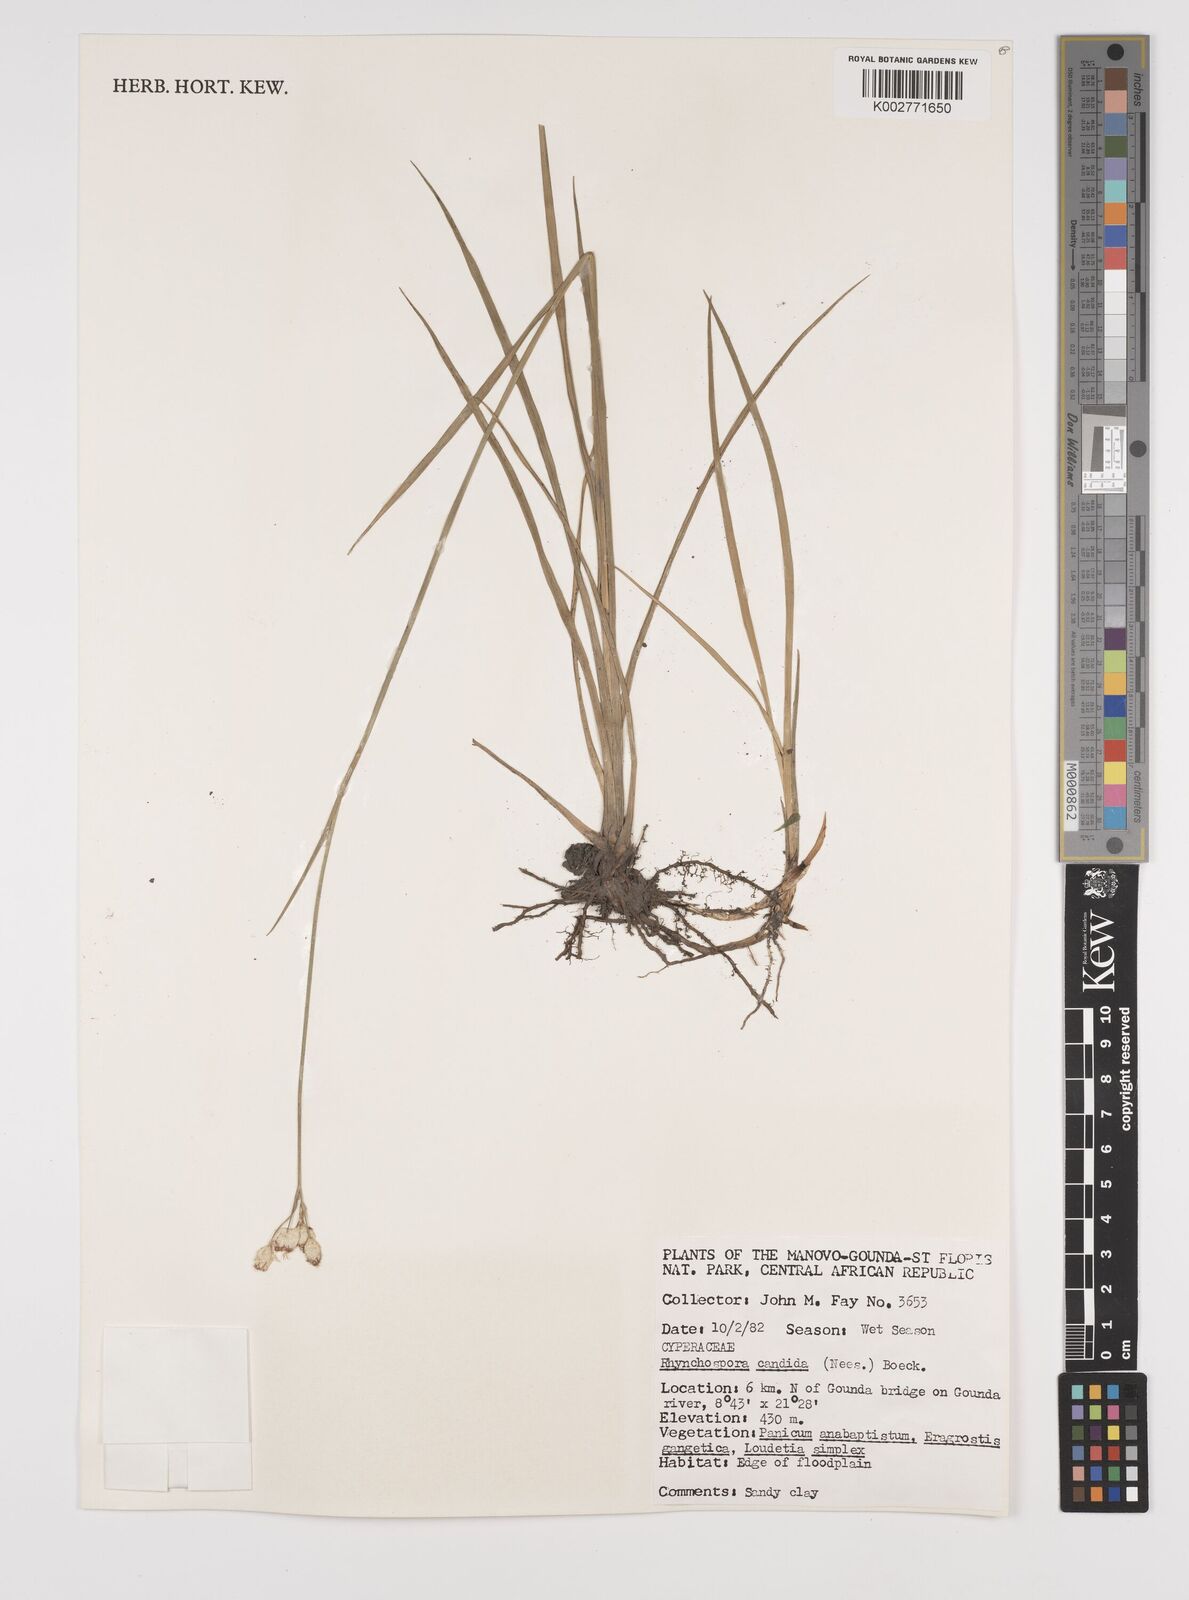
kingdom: Plantae
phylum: Tracheophyta
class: Liliopsida
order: Poales
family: Cyperaceae
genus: Rhynchospora
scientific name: Rhynchospora candida
